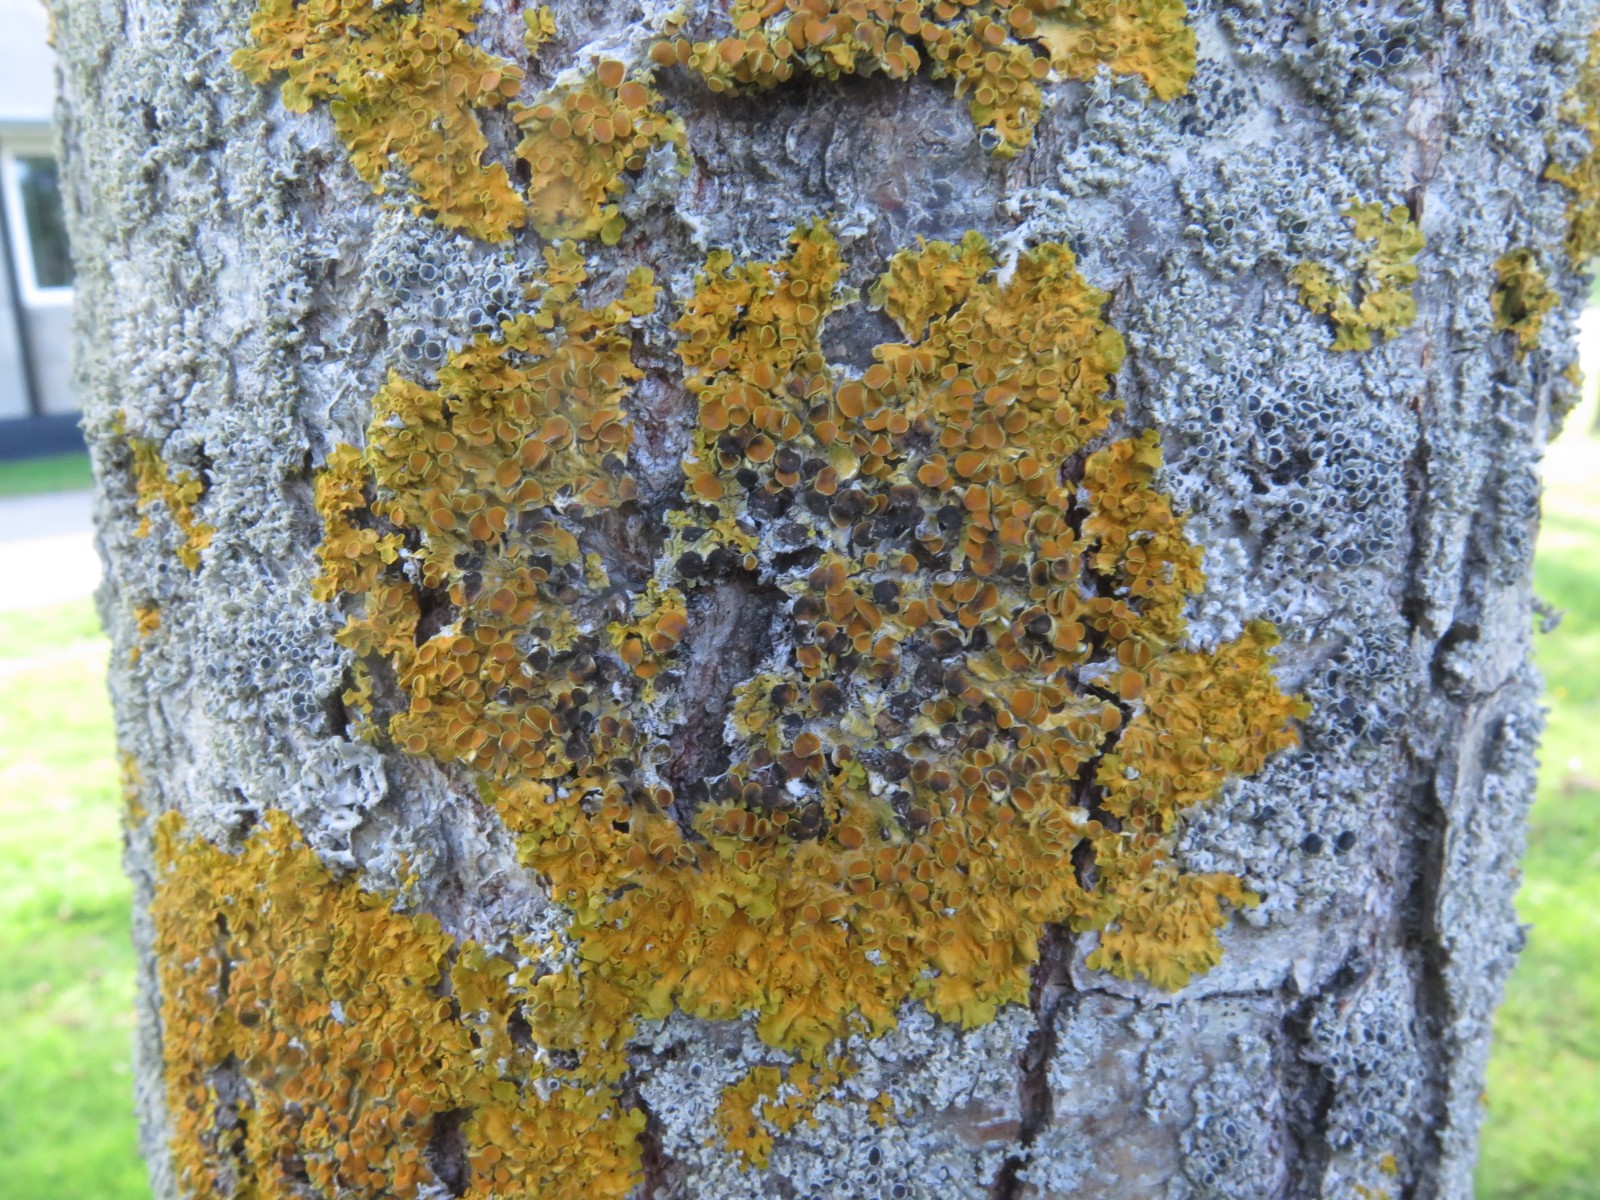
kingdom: Fungi
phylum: Ascomycota
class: Dothideomycetes
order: Mycosphaerellales
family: Teratosphaeriaceae
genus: Xanthoriicola
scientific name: Xanthoriicola physciae
